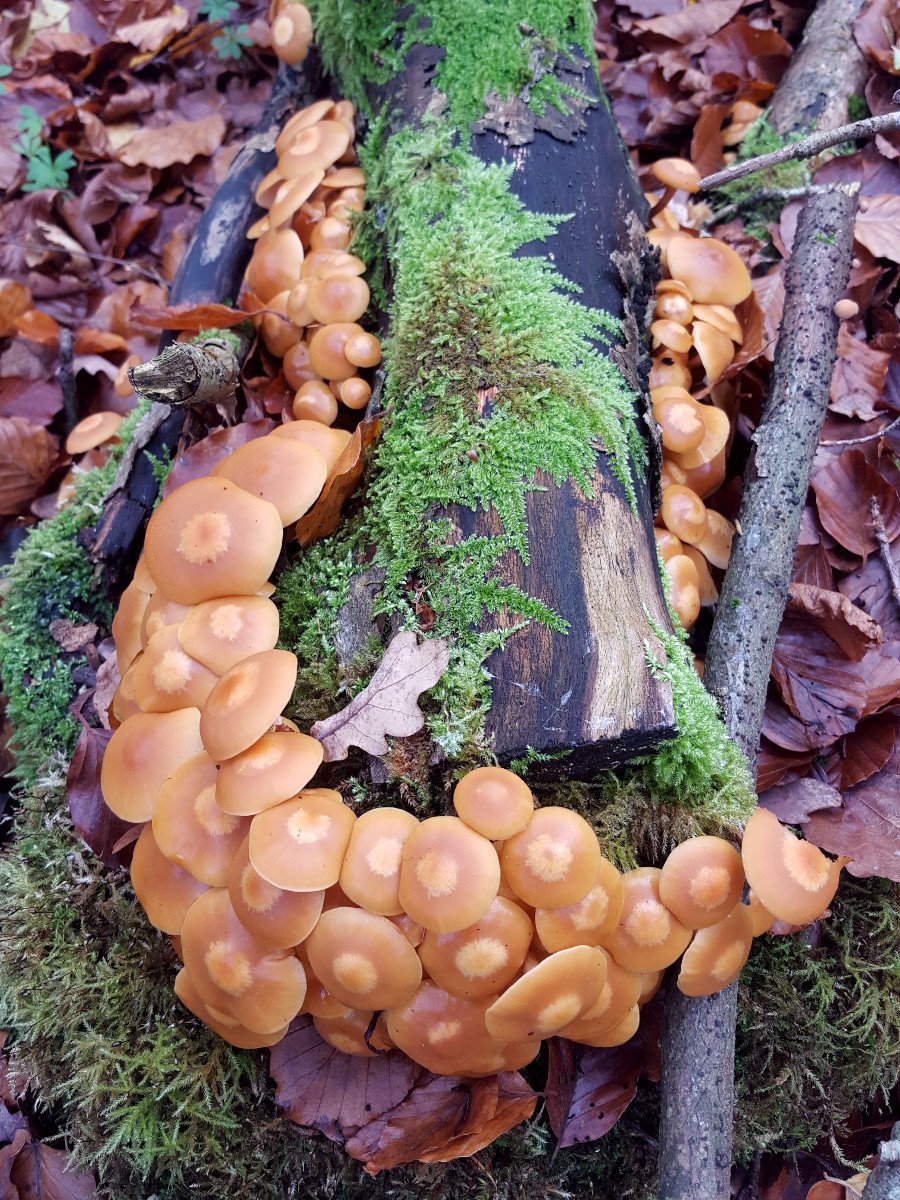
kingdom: Fungi
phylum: Basidiomycota
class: Agaricomycetes
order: Agaricales
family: Strophariaceae
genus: Kuehneromyces
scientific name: Kuehneromyces mutabilis
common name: foranderlig skælhat
